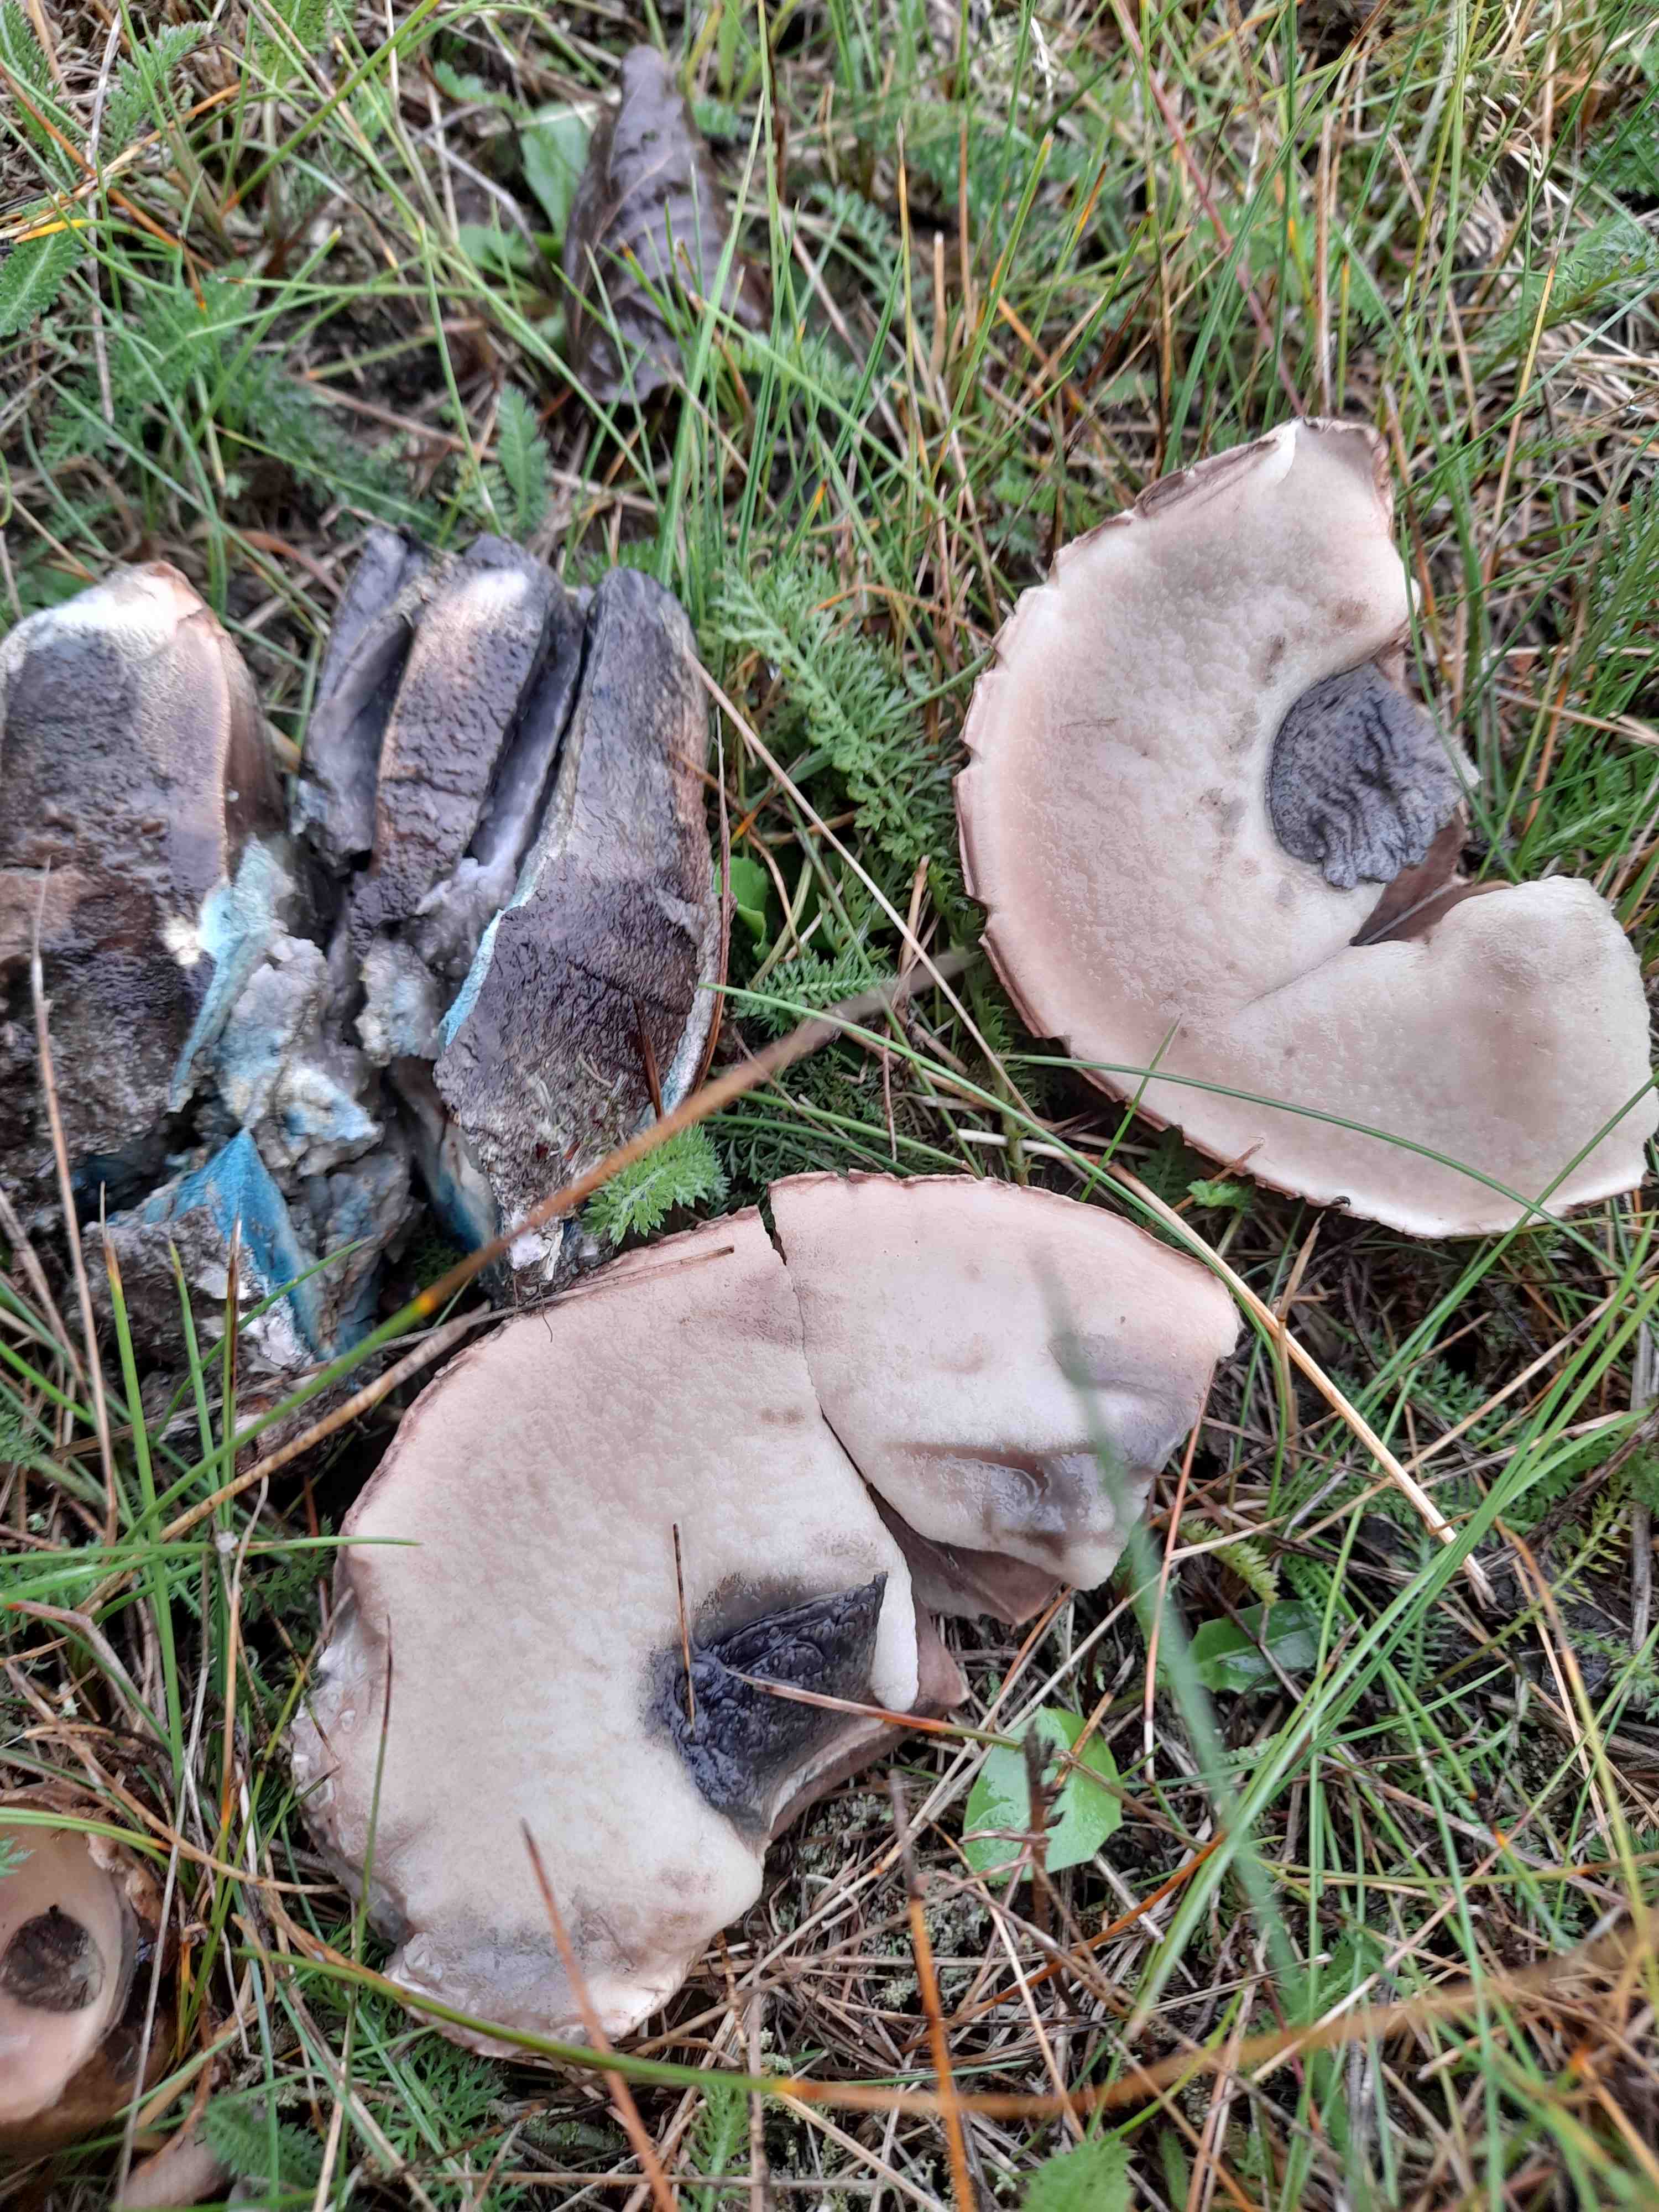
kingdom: Fungi
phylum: Basidiomycota
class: Agaricomycetes
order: Boletales
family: Boletaceae
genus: Leccinum
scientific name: Leccinum duriusculum
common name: poppel-skælrørhat
